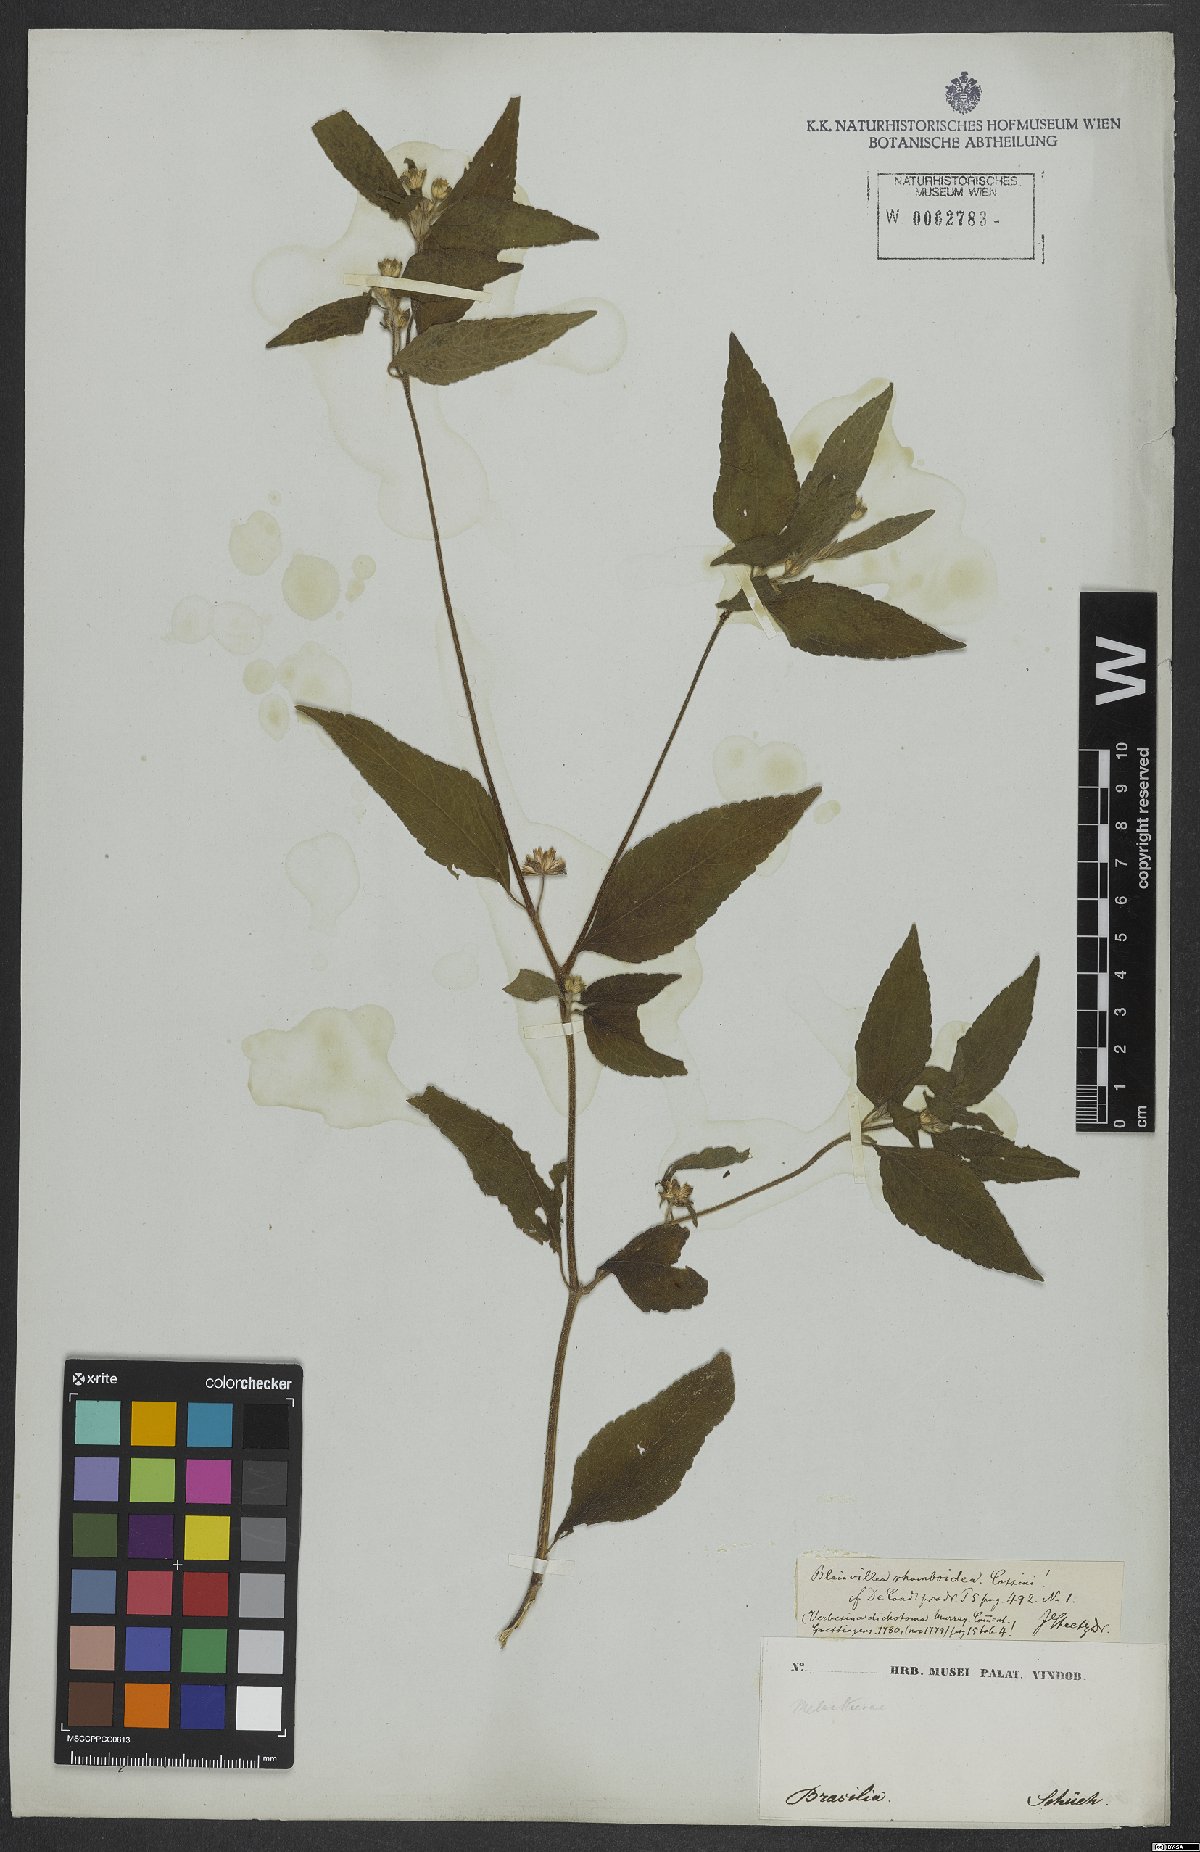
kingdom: Plantae
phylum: Tracheophyta
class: Magnoliopsida
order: Asterales
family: Asteraceae
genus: Blainvillea
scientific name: Blainvillea dichotoma
